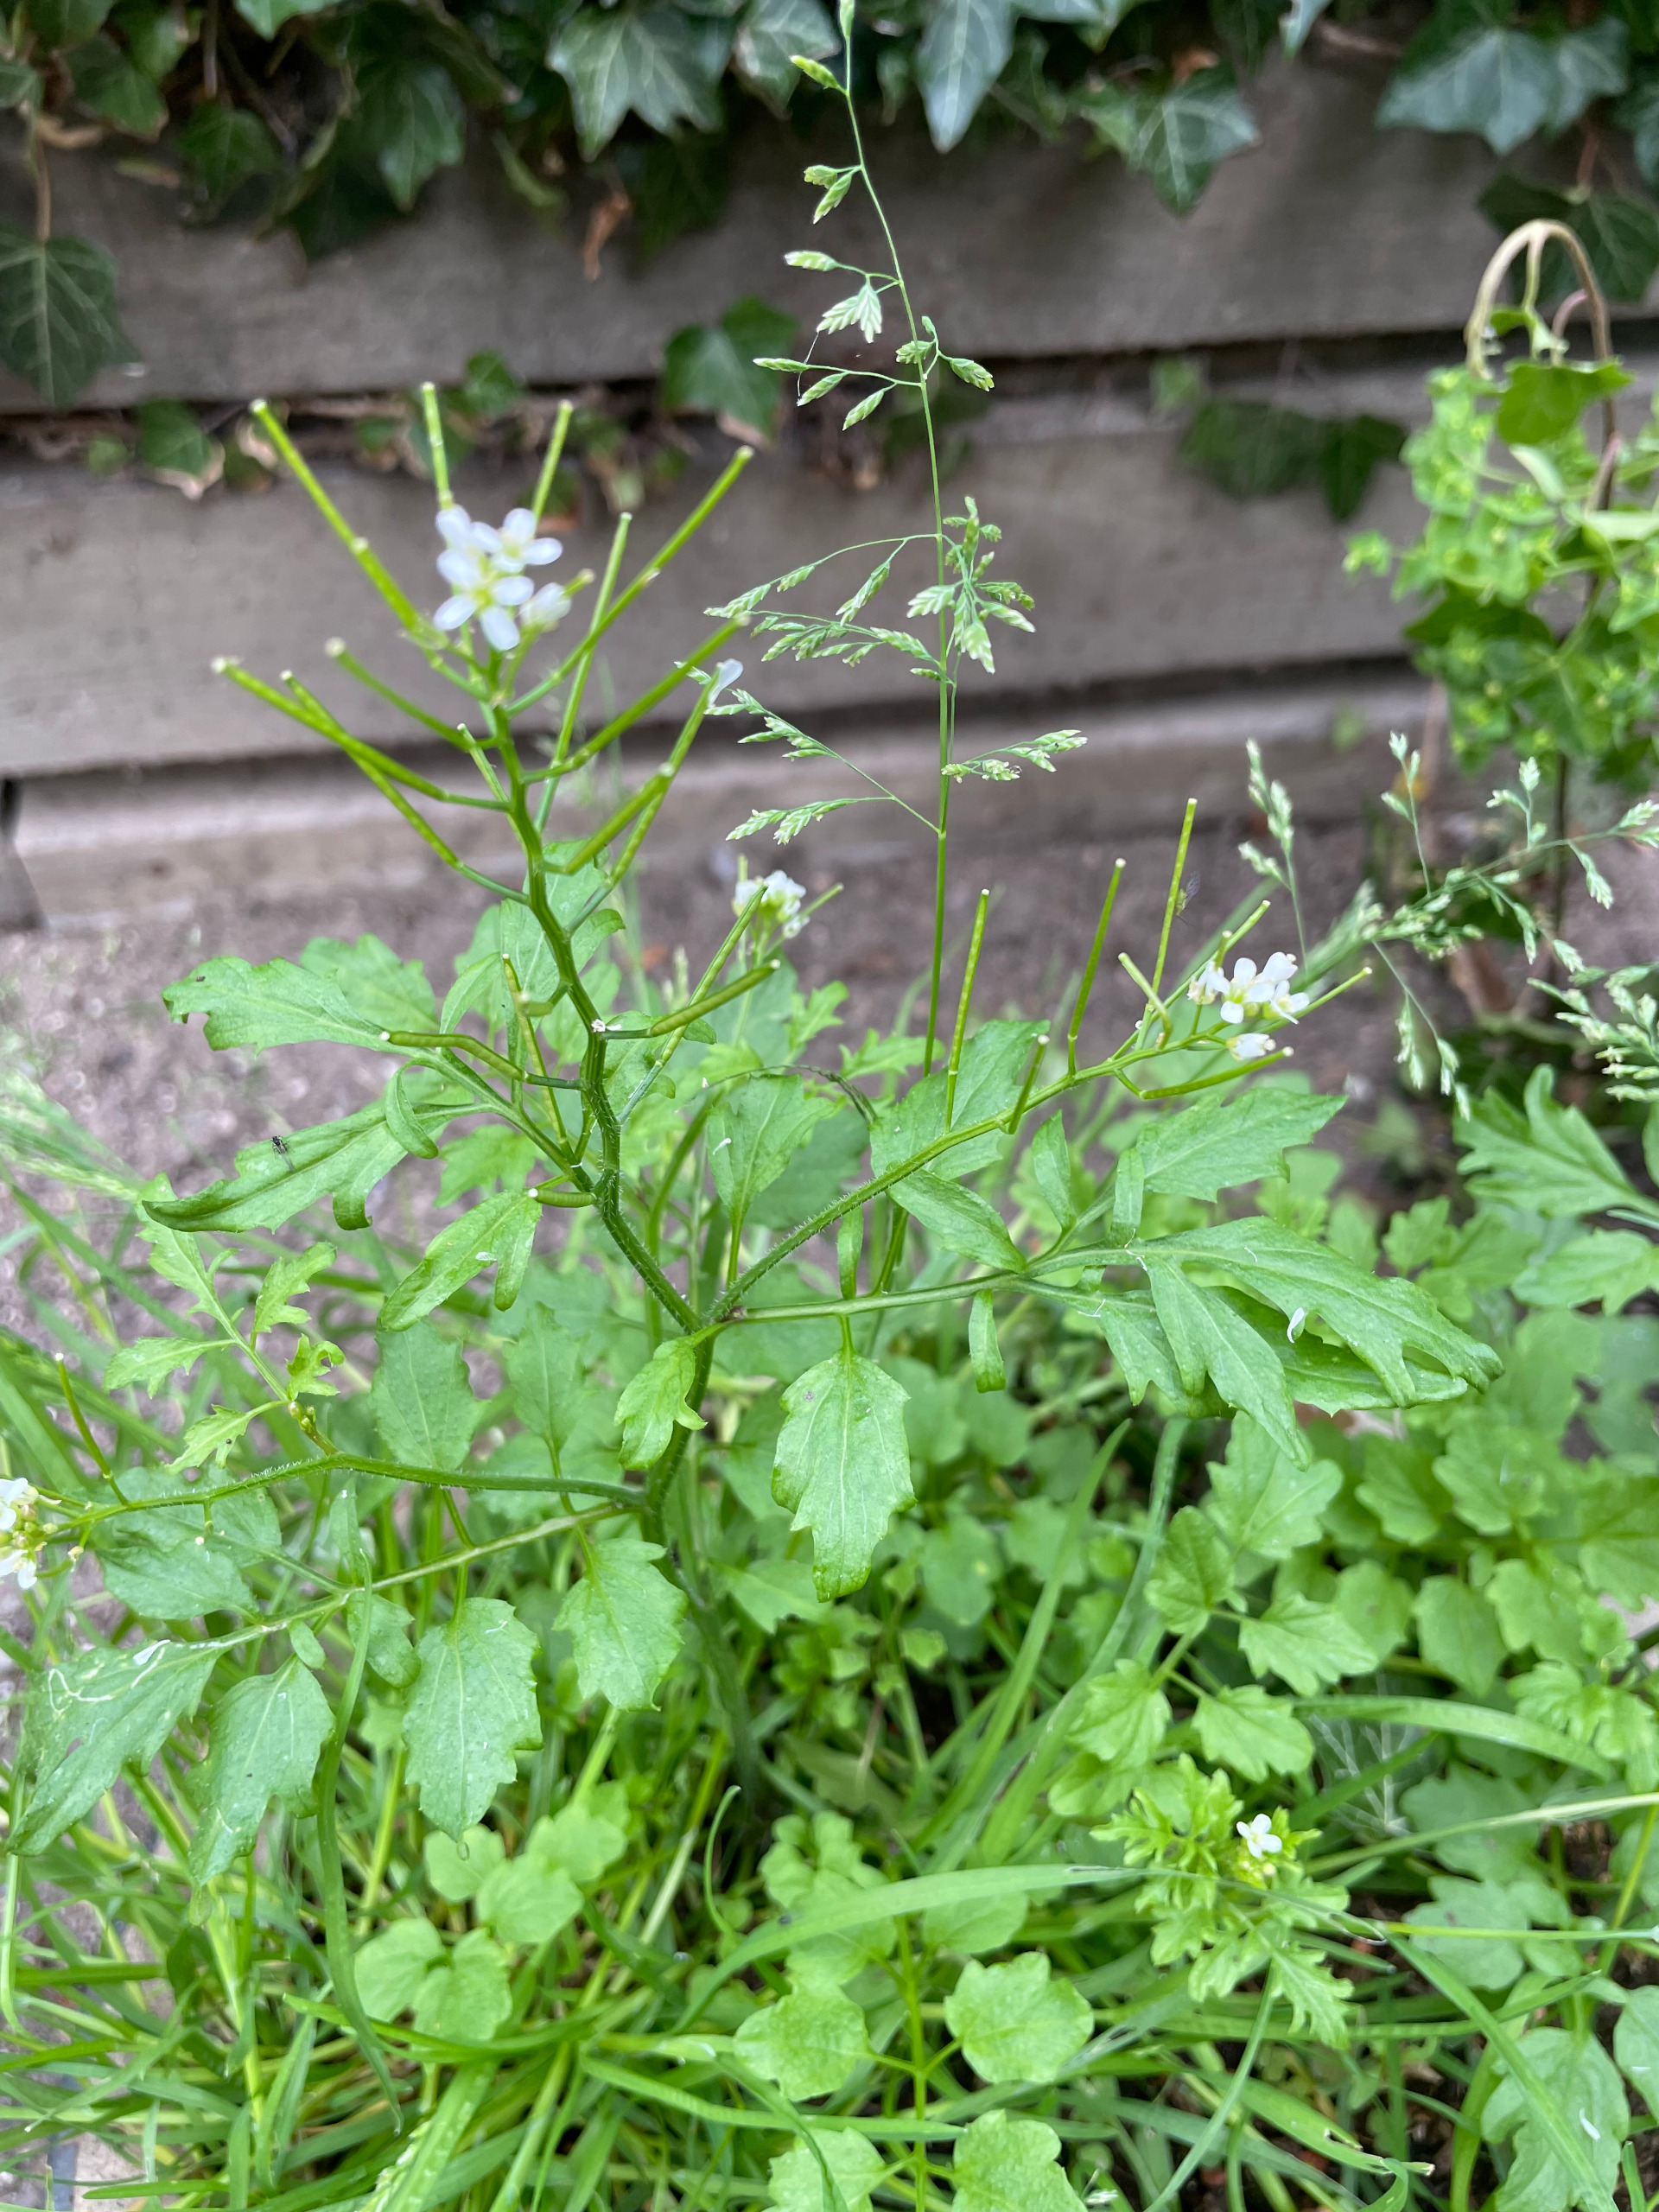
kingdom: Plantae
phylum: Tracheophyta
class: Magnoliopsida
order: Brassicales
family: Brassicaceae
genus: Cardamine
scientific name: Cardamine flexuosa
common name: Skov-springklap
